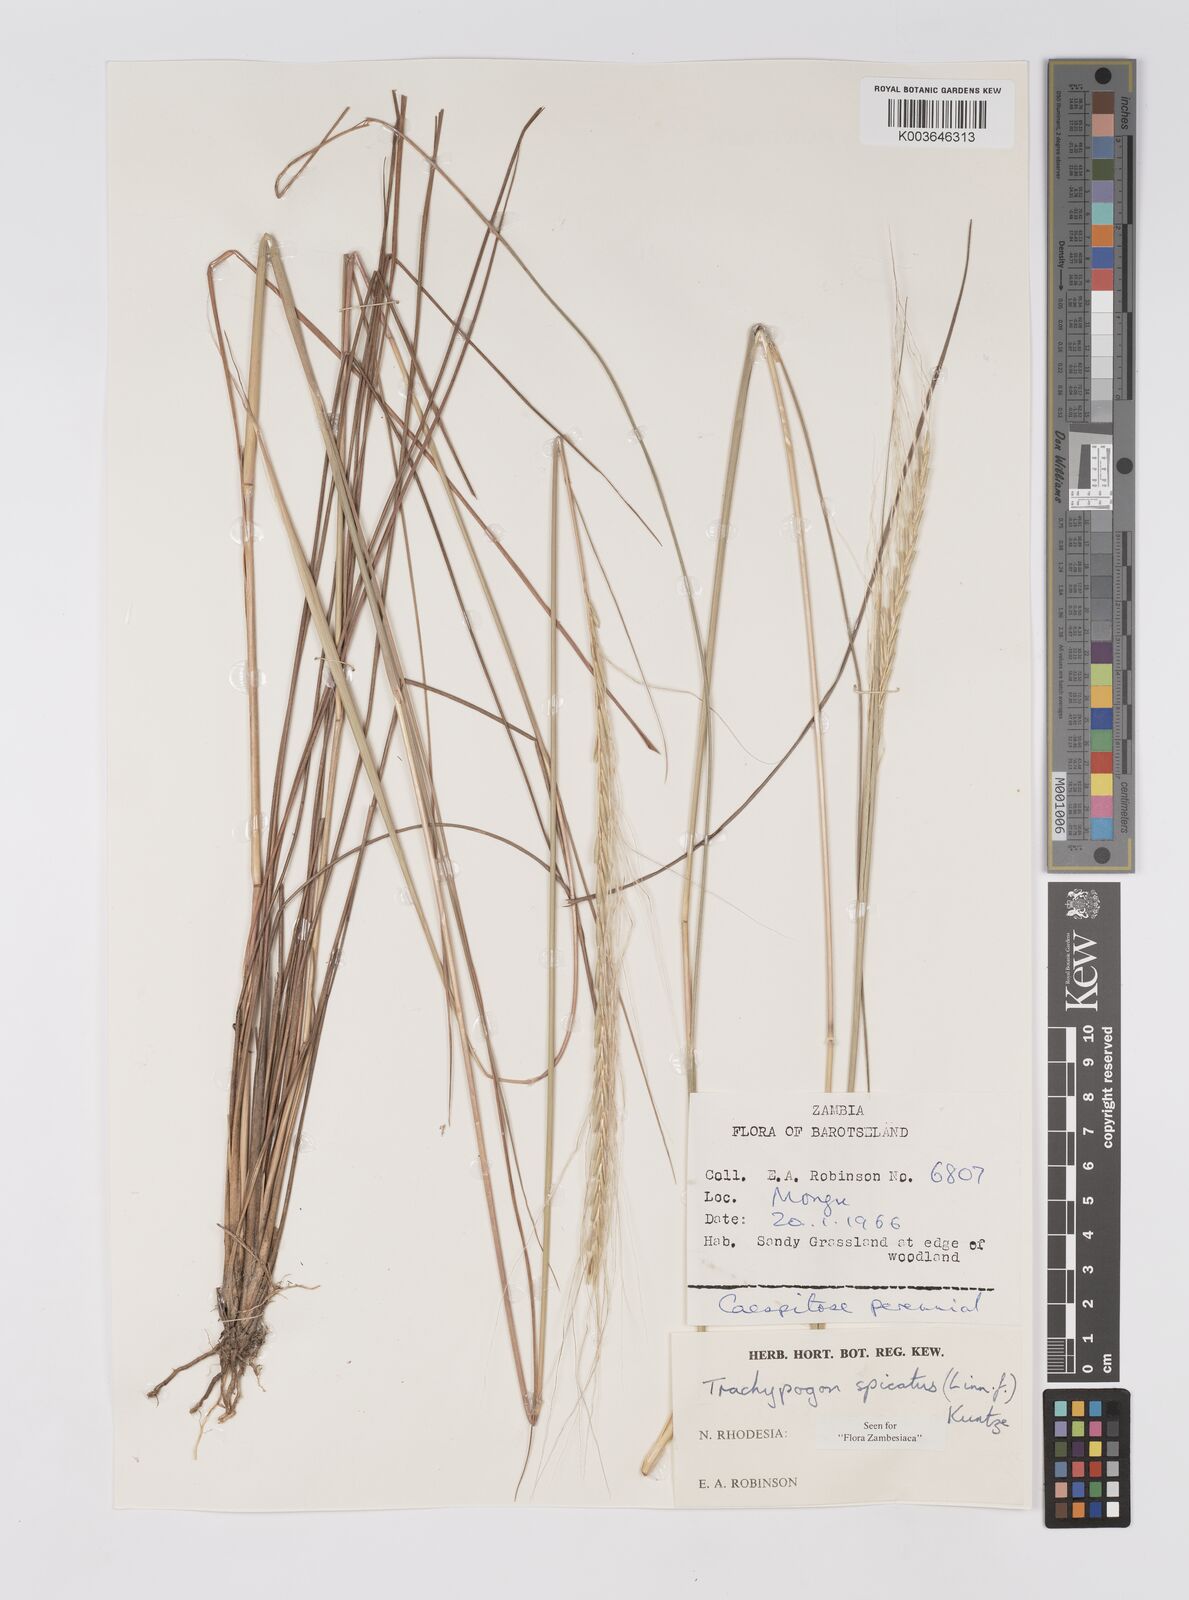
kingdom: Plantae
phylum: Tracheophyta
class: Liliopsida
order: Poales
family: Poaceae
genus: Trachypogon
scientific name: Trachypogon spicatus
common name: Crinkle-awn
